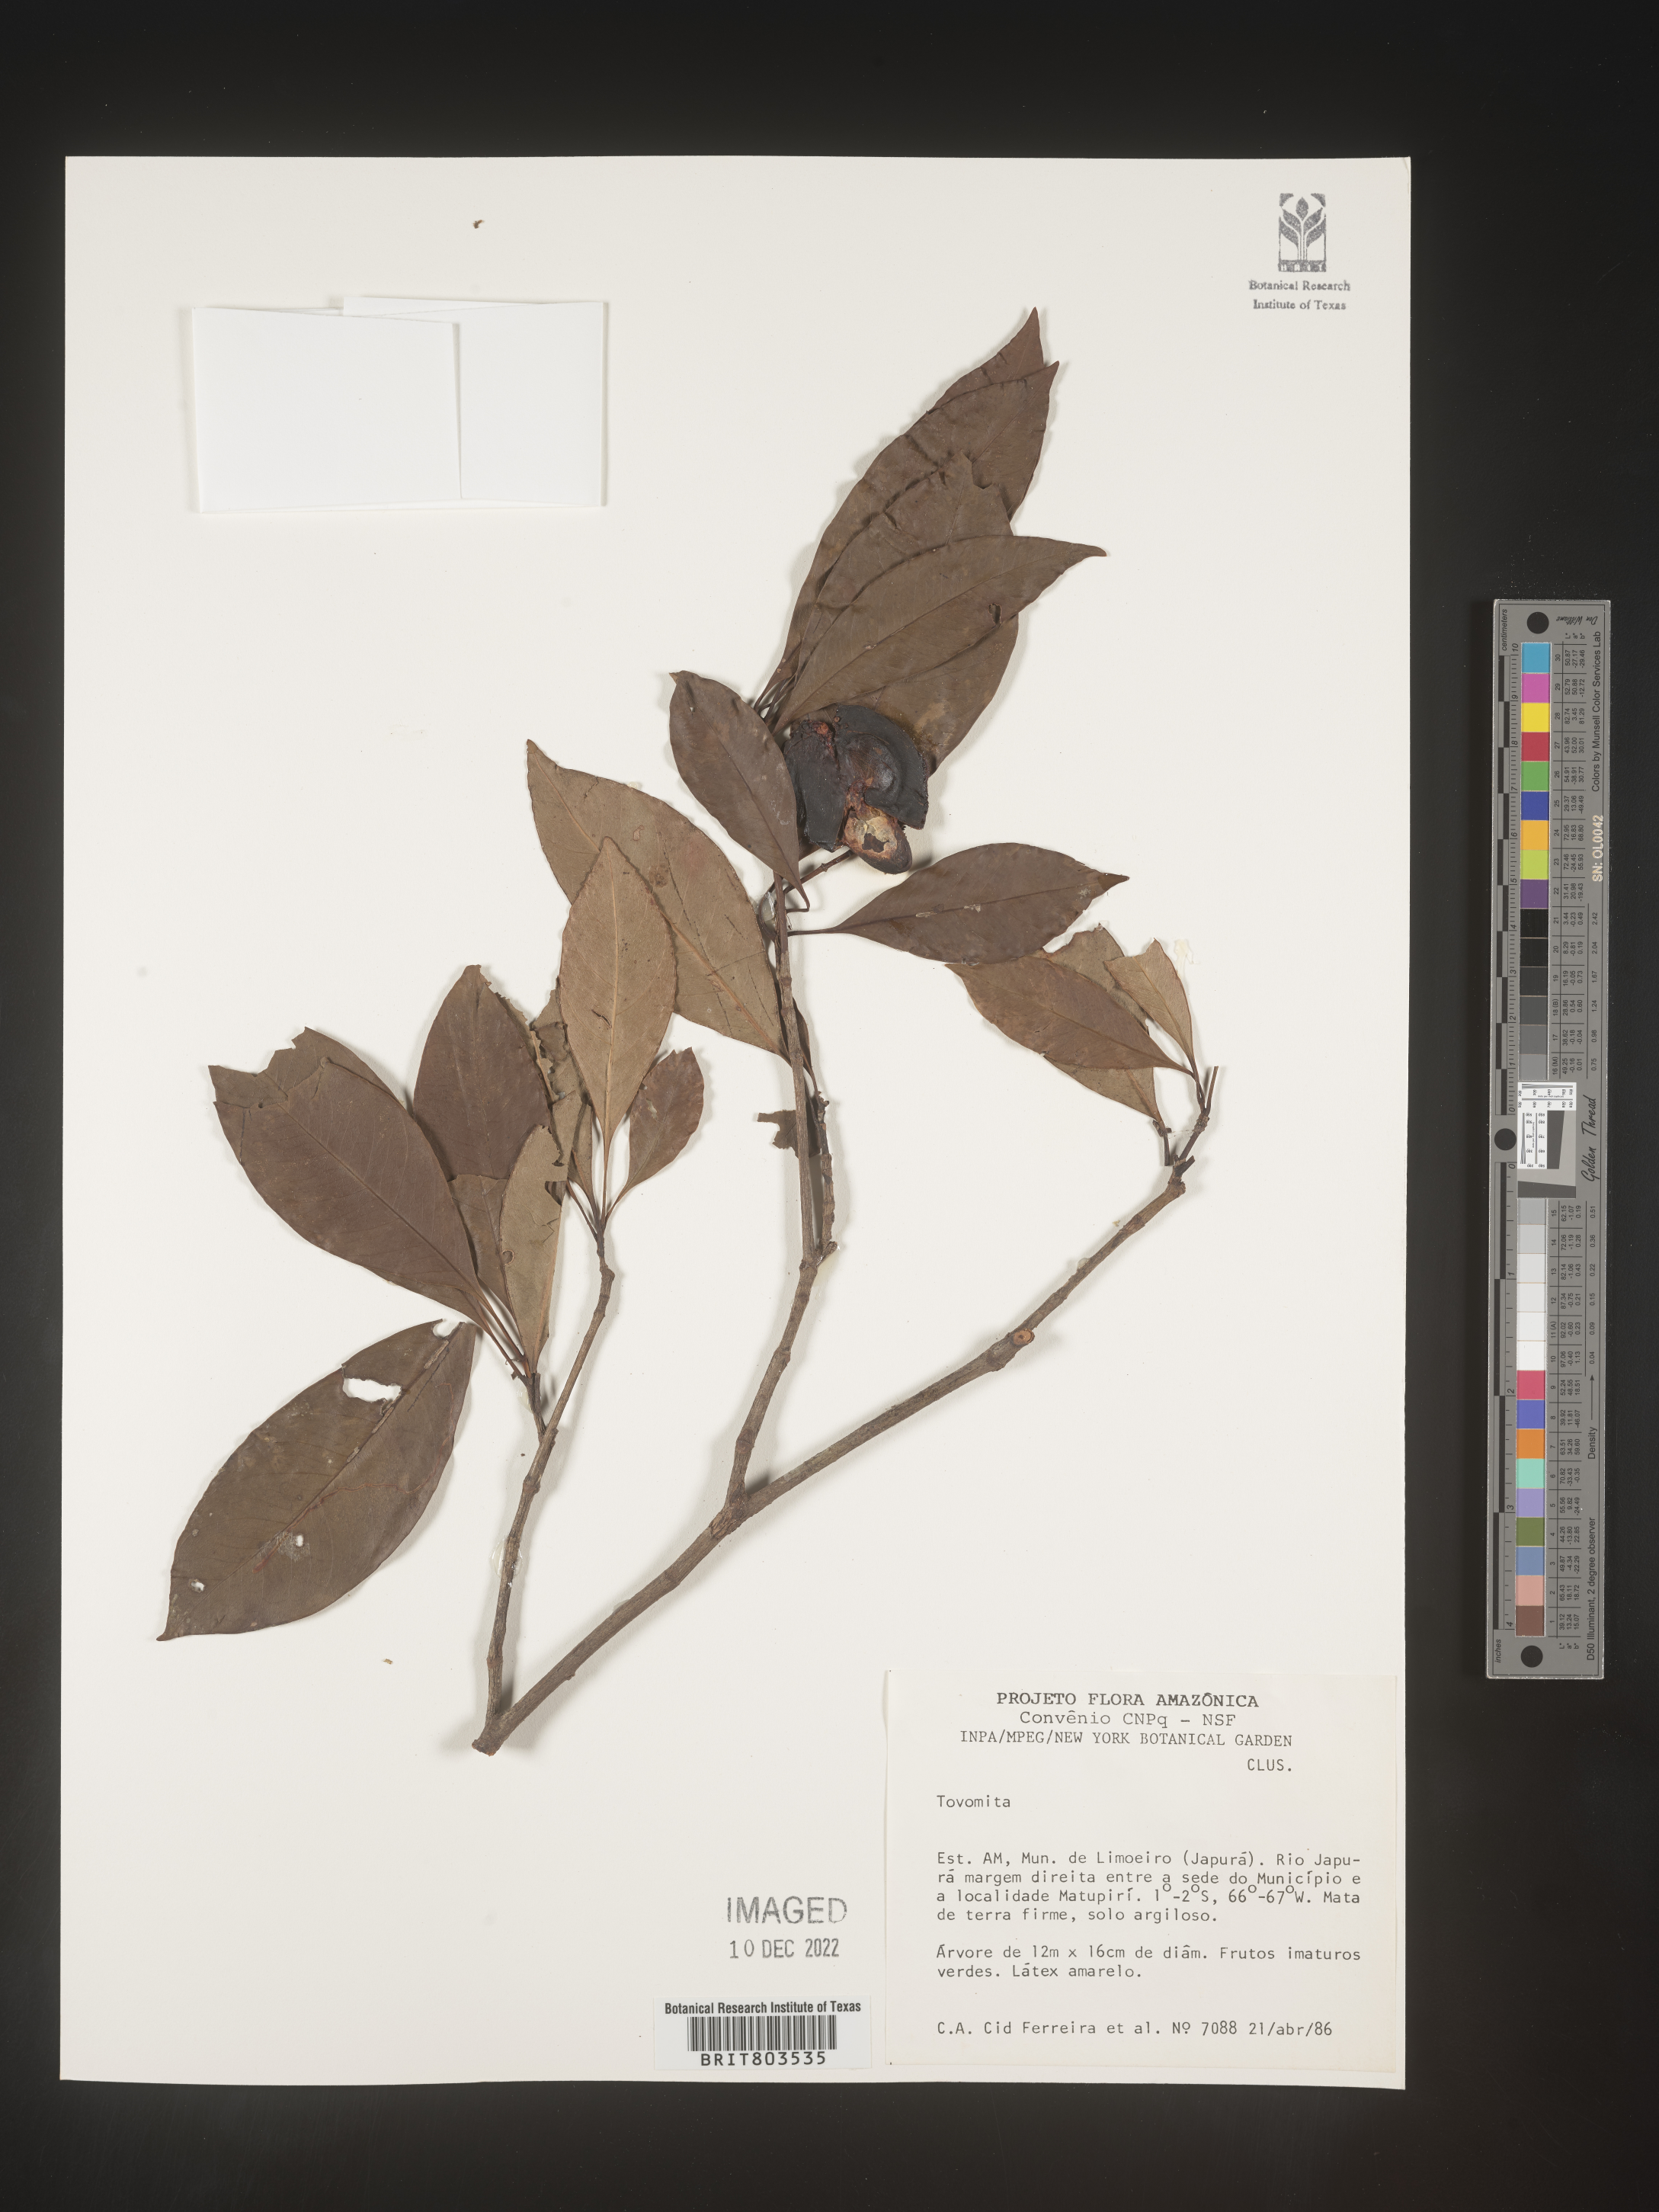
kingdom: Plantae
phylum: Tracheophyta
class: Magnoliopsida
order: Malpighiales
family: Clusiaceae
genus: Tovomita
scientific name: Tovomita
